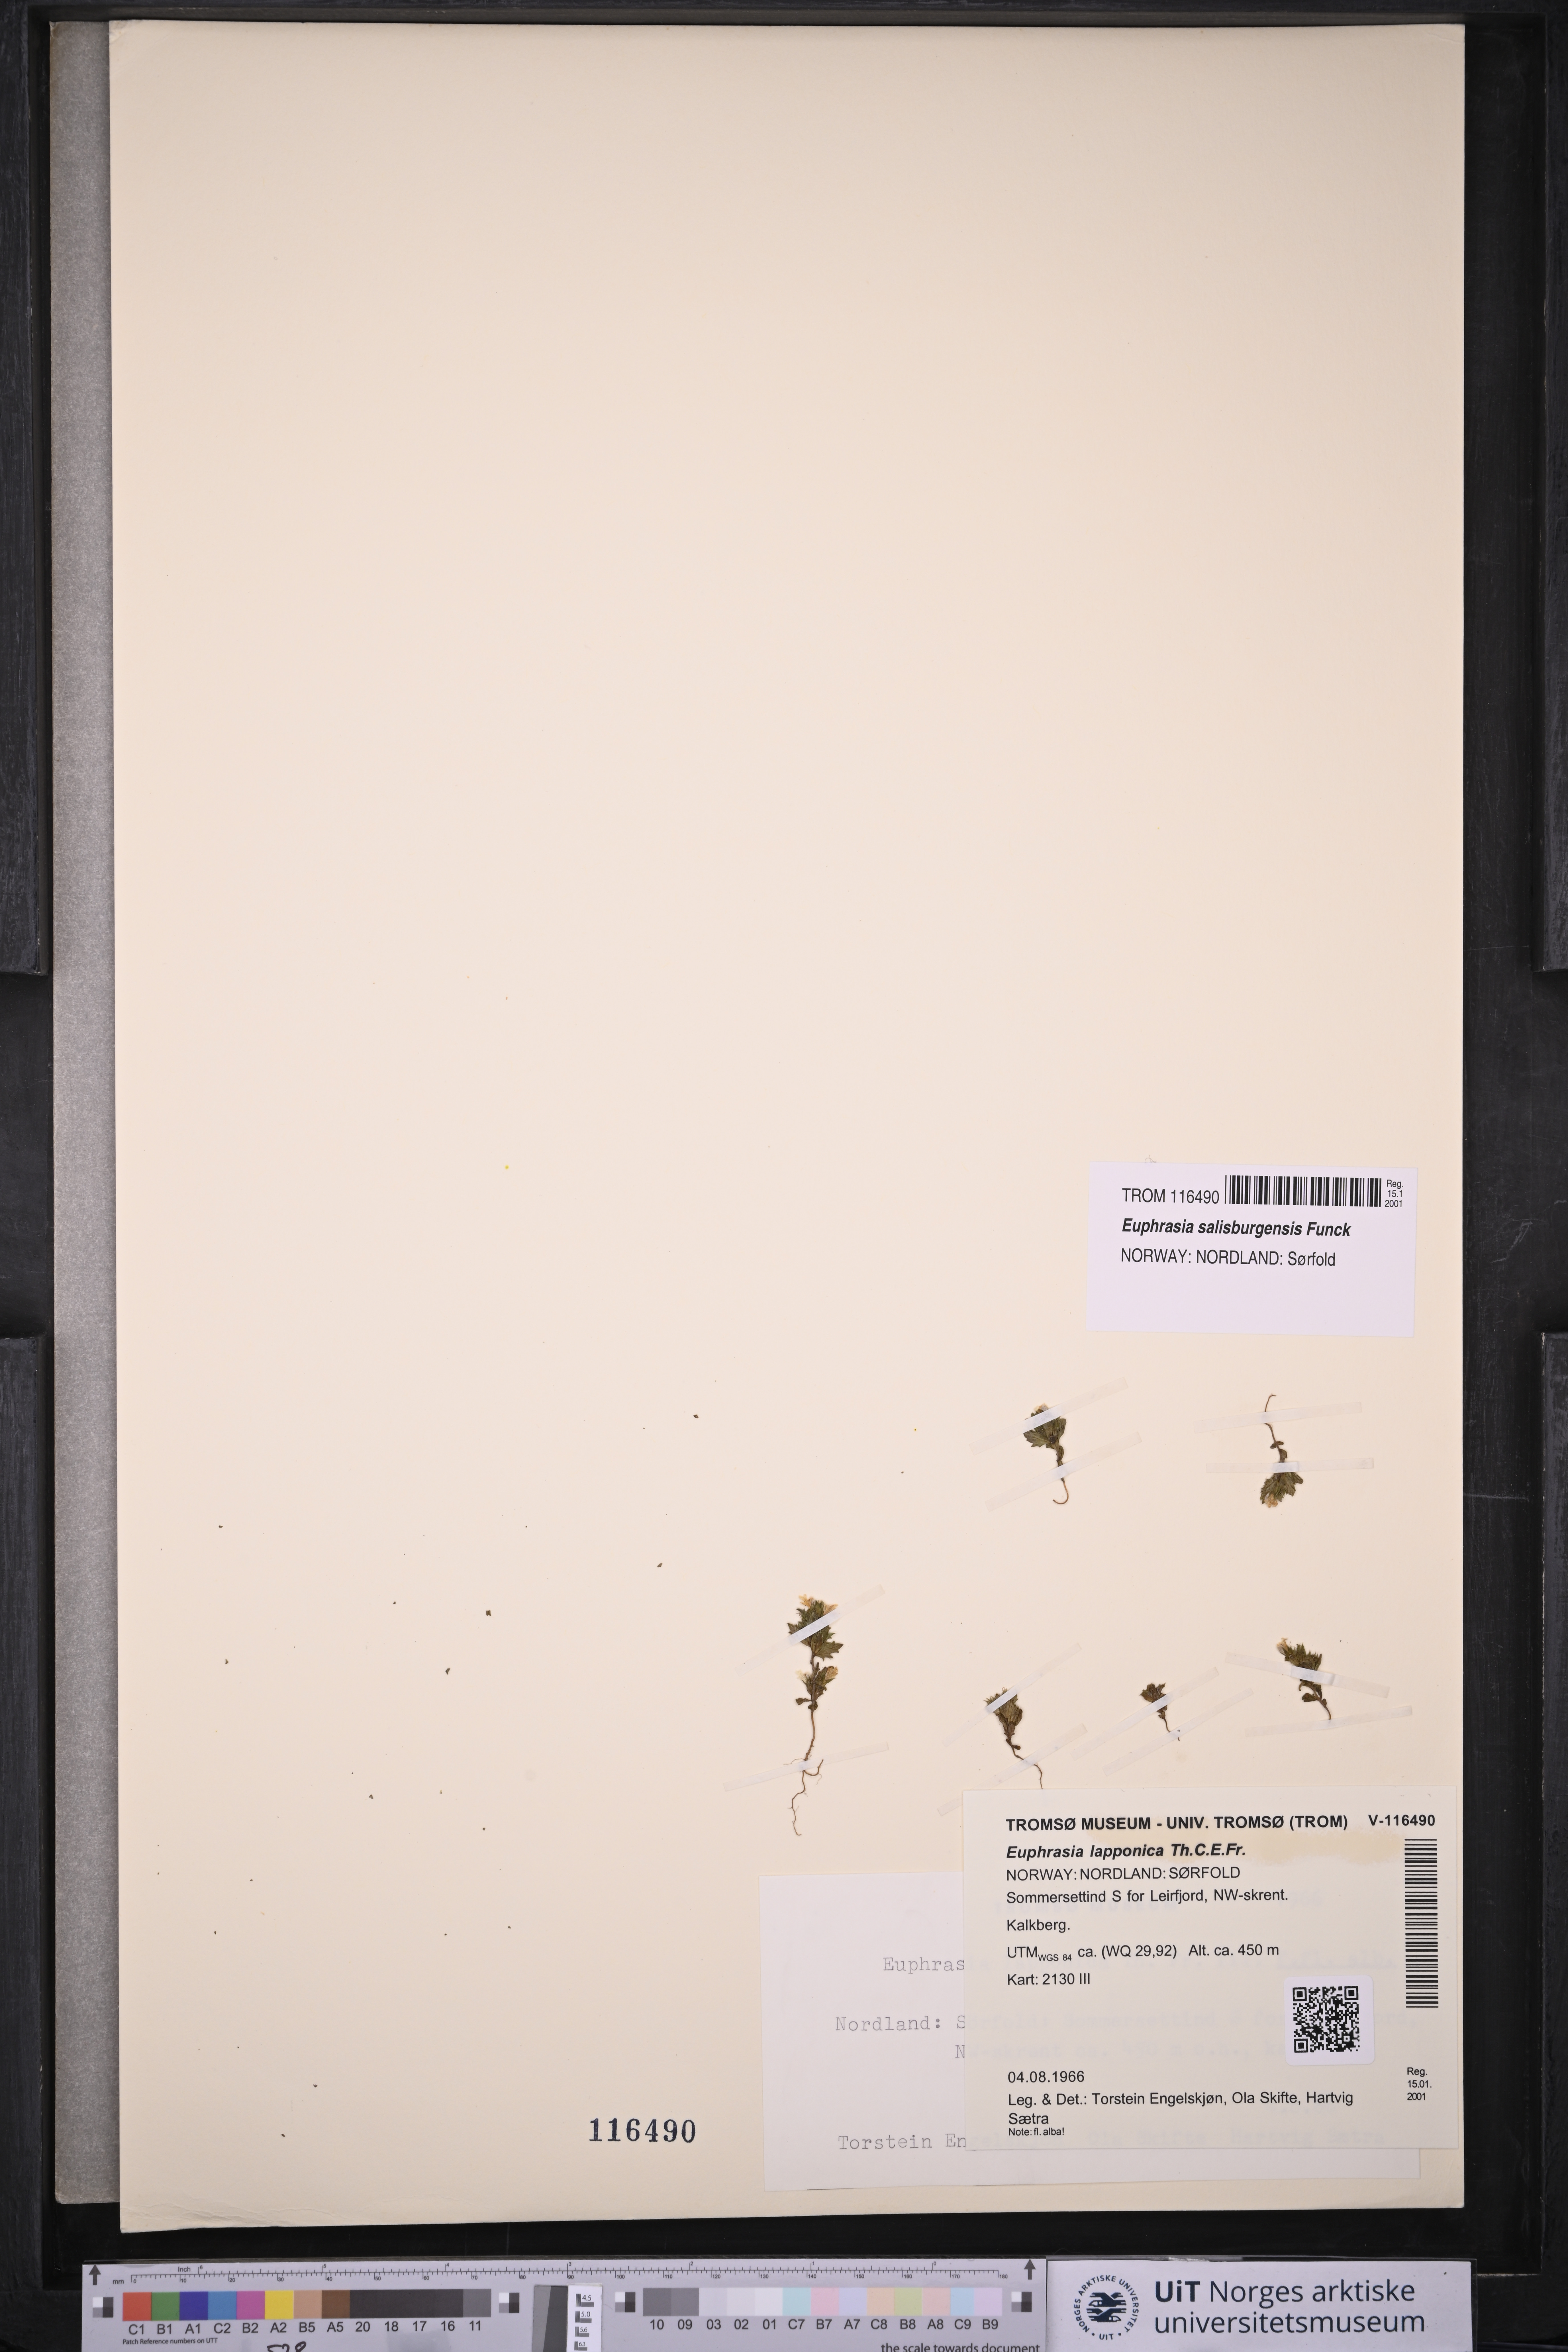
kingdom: Plantae
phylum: Tracheophyta
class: Magnoliopsida
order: Lamiales
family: Orobanchaceae
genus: Euphrasia
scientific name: Euphrasia salisburgensis
